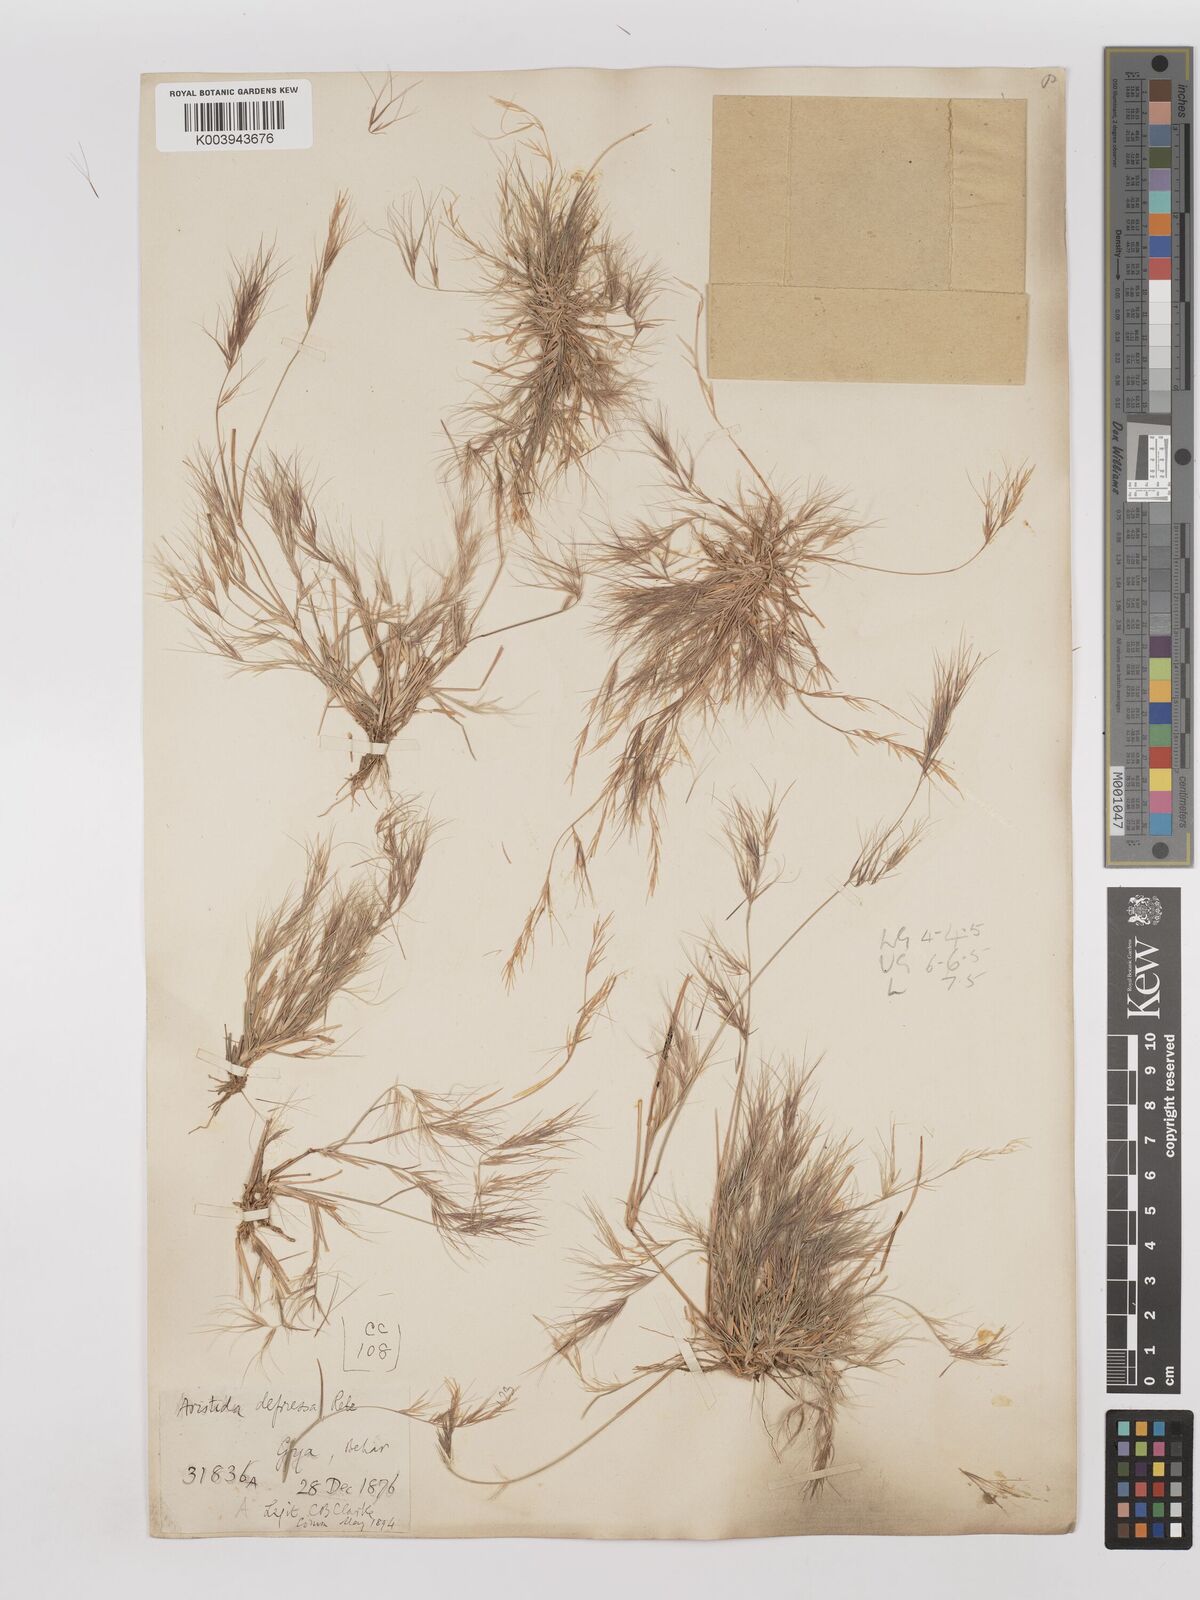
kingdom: Plantae
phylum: Tracheophyta
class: Liliopsida
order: Poales
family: Poaceae
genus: Aristida
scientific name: Aristida adscensionis
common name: Sixweeks threeawn
